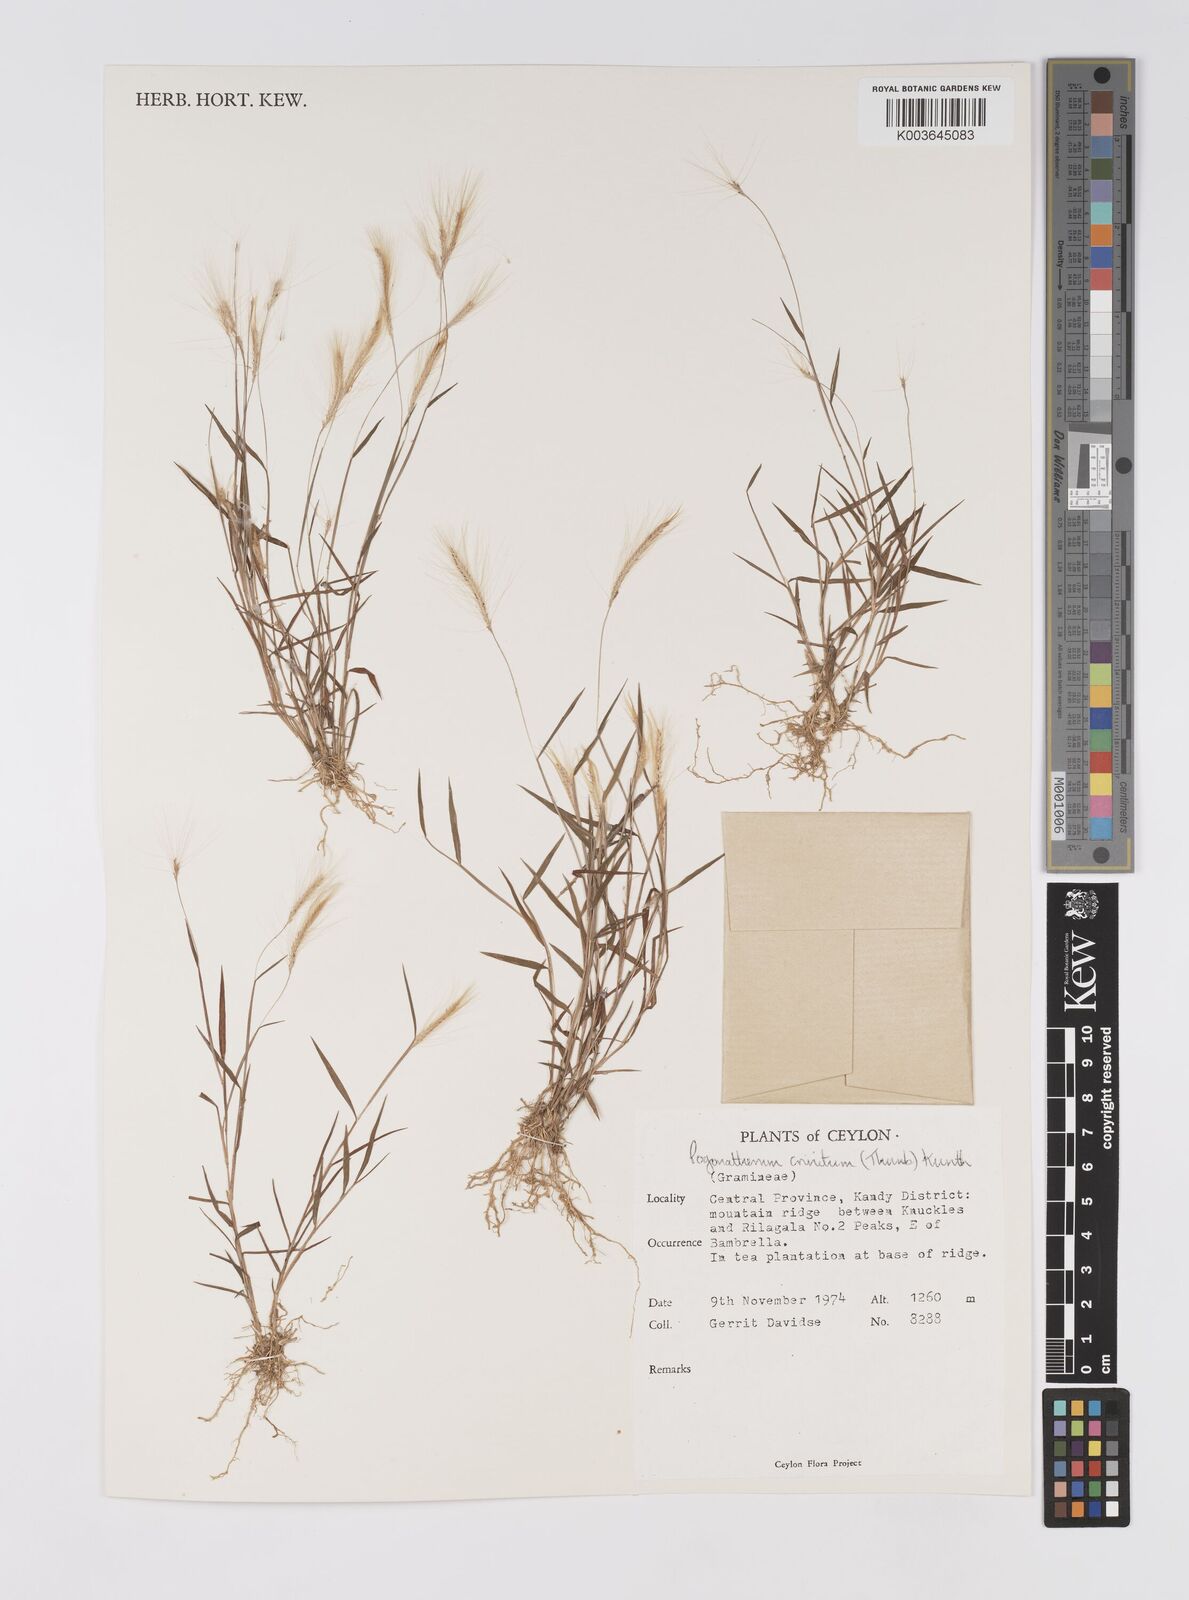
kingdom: Plantae
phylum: Tracheophyta
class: Liliopsida
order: Poales
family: Poaceae
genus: Pogonatherum
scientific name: Pogonatherum crinitum
